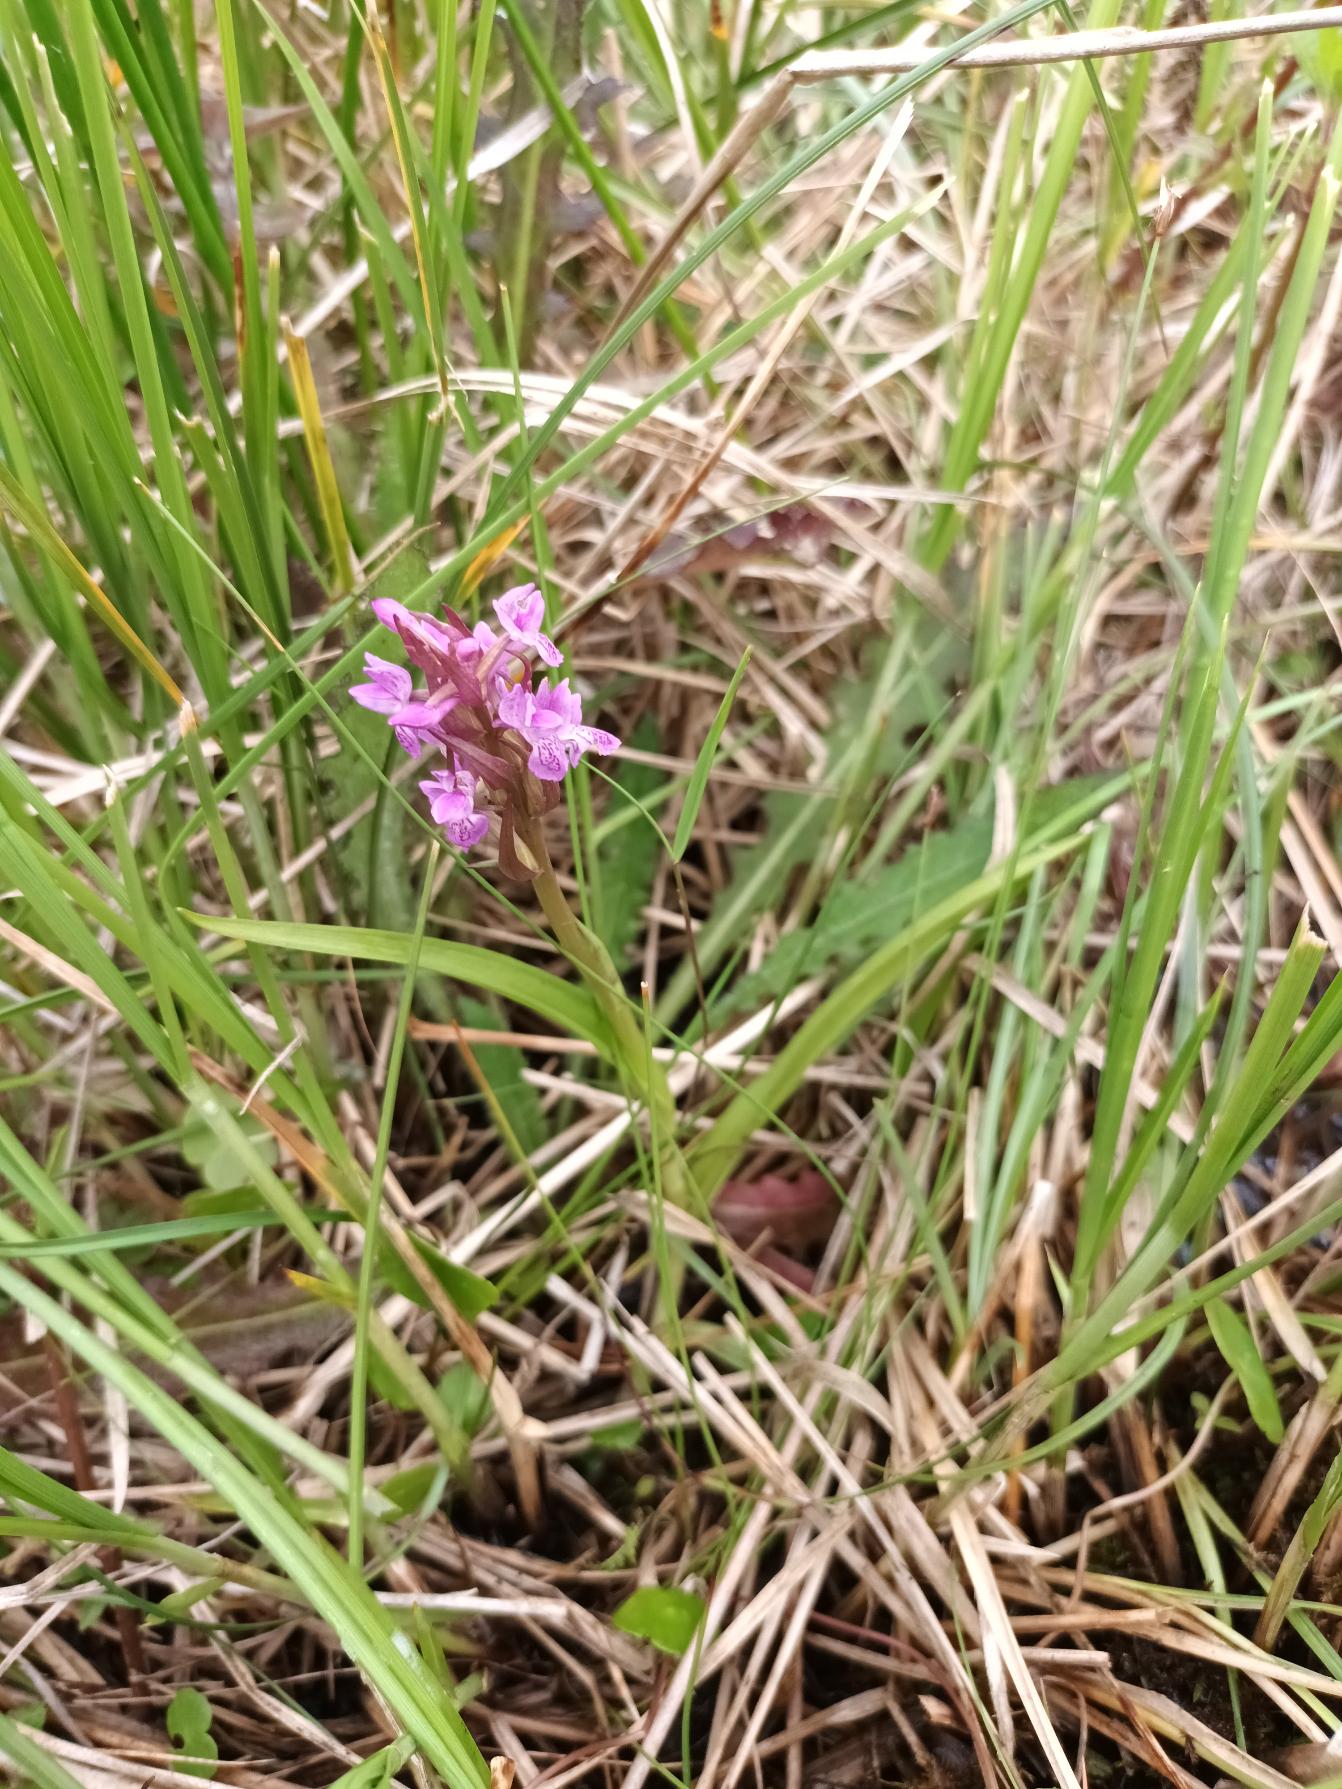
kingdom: Plantae
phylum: Tracheophyta
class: Liliopsida
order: Asparagales
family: Orchidaceae
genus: Dactylorhiza
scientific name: Dactylorhiza incarnata
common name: Kødfarvet gøgeurt
